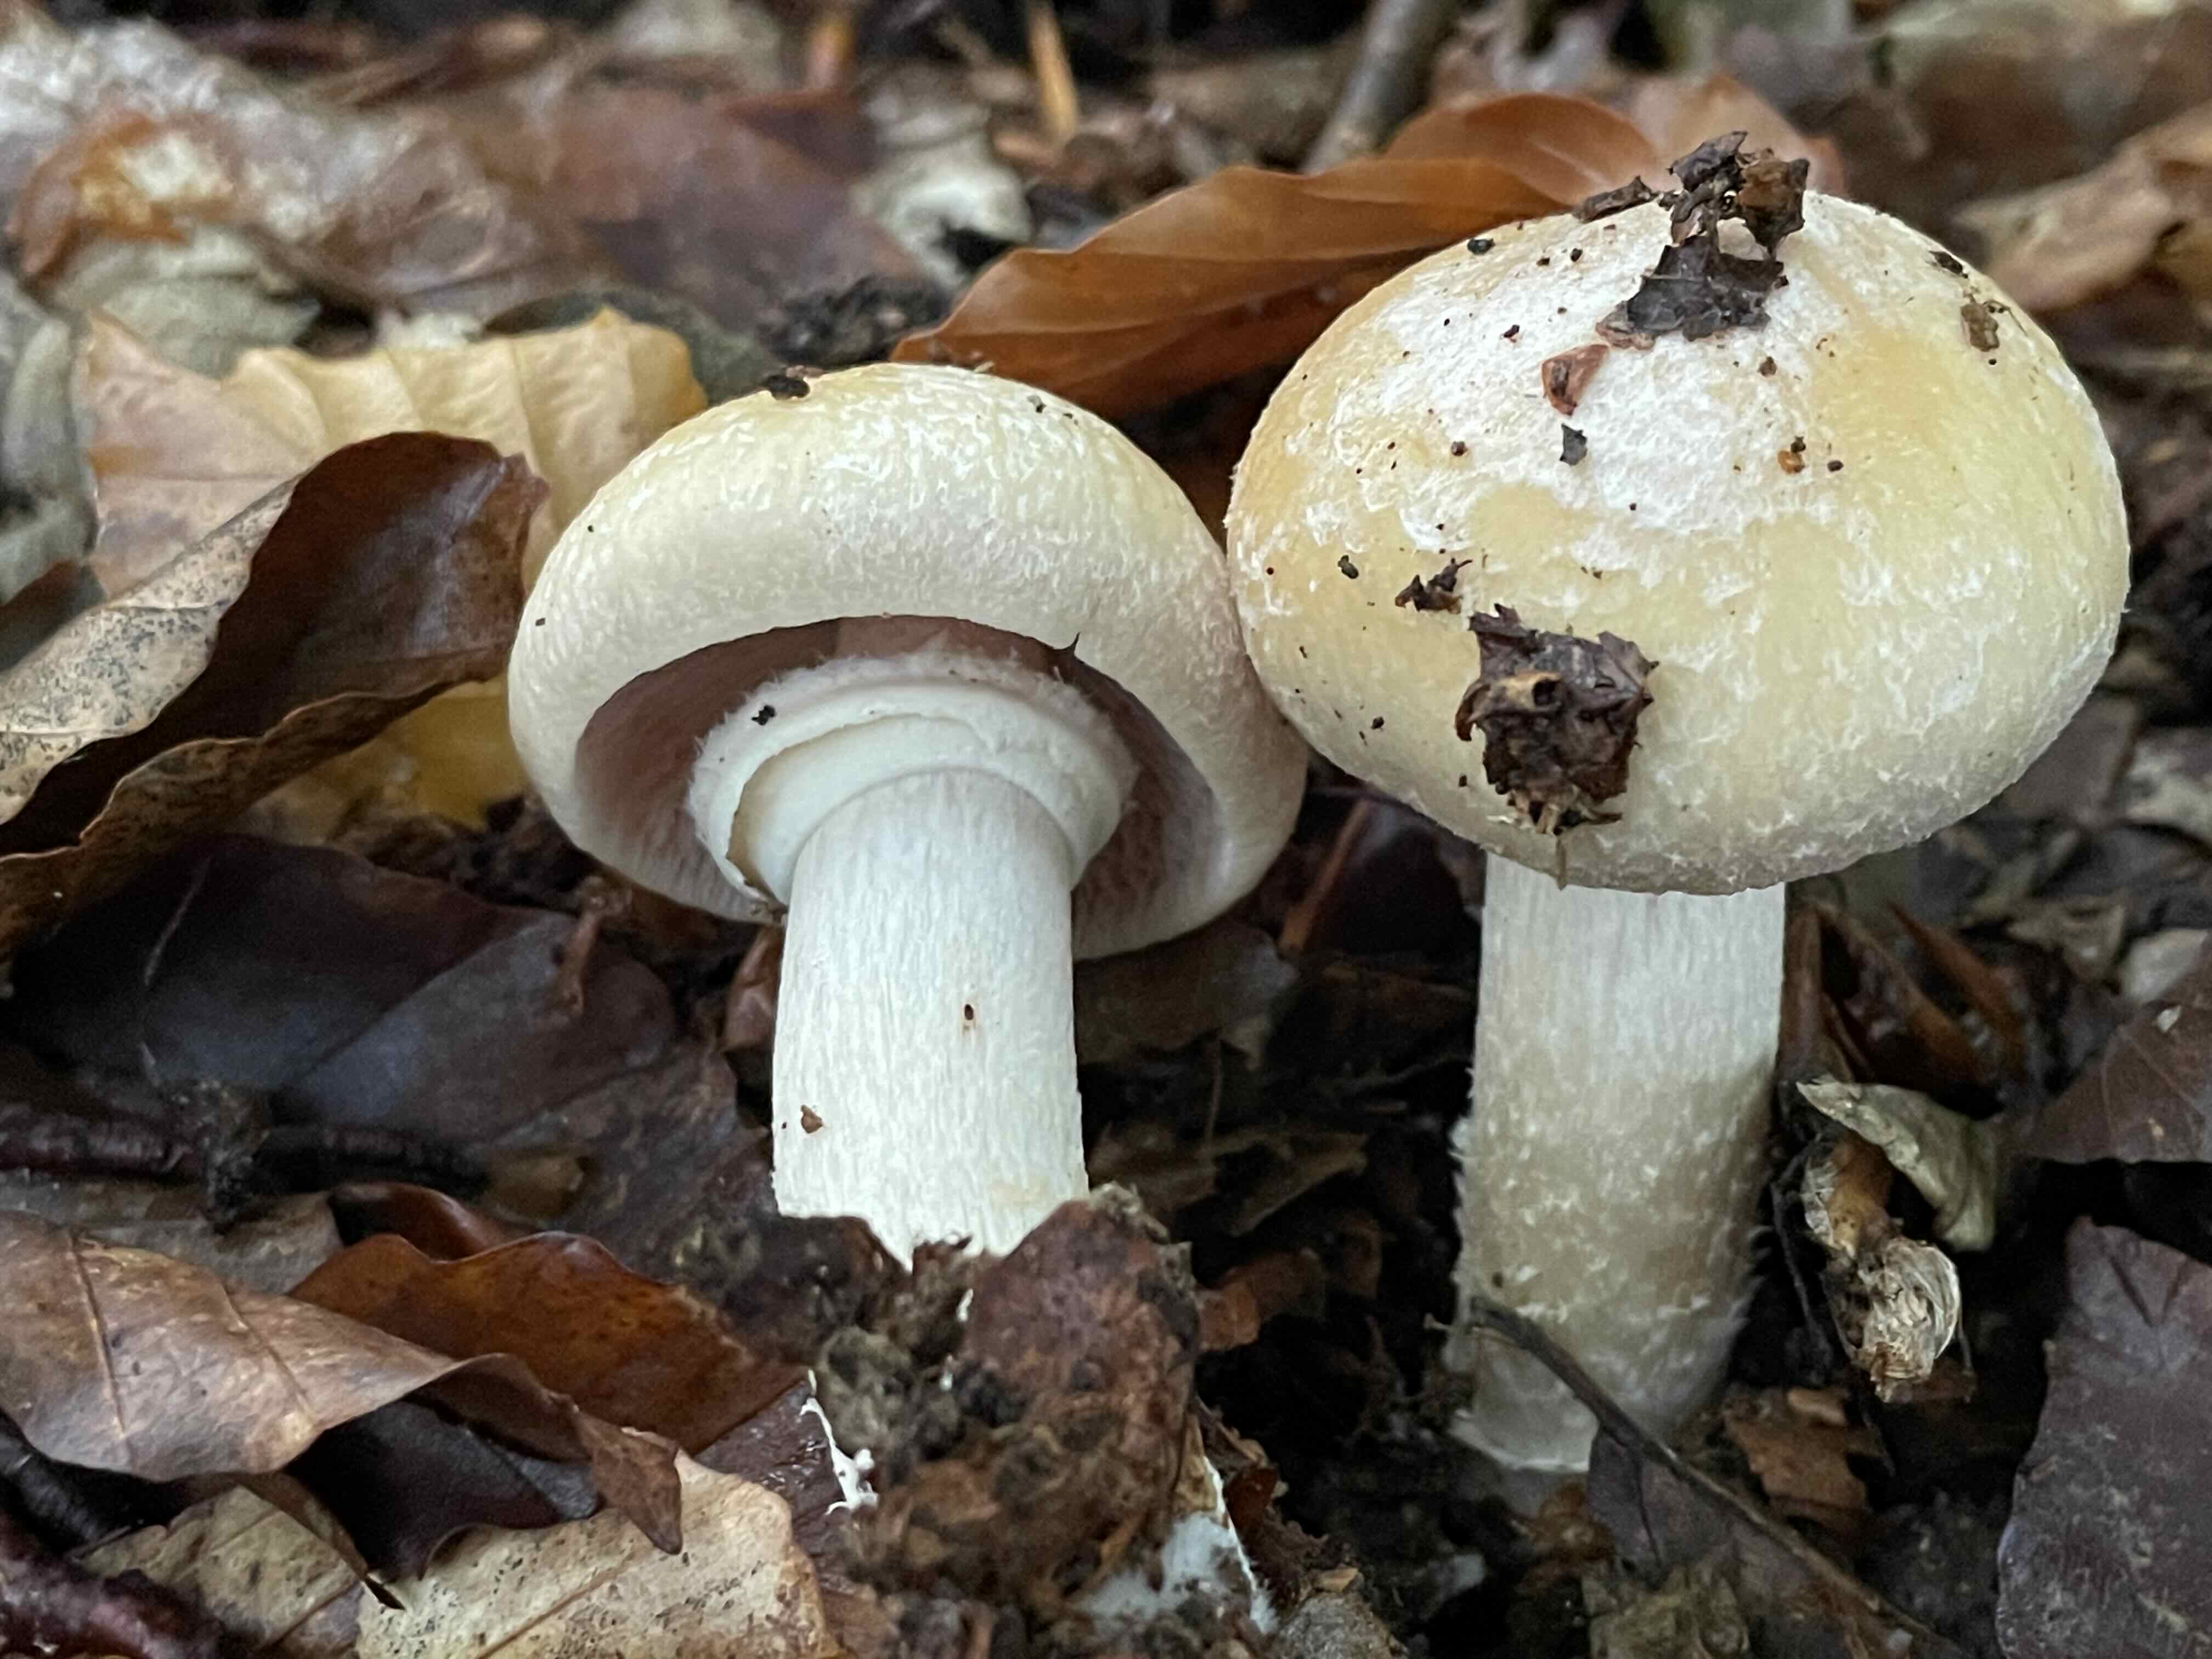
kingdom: Fungi
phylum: Basidiomycota
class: Agaricomycetes
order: Agaricales
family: Cortinariaceae
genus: Cortinarius
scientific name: Cortinarius caperatus
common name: klidhat
